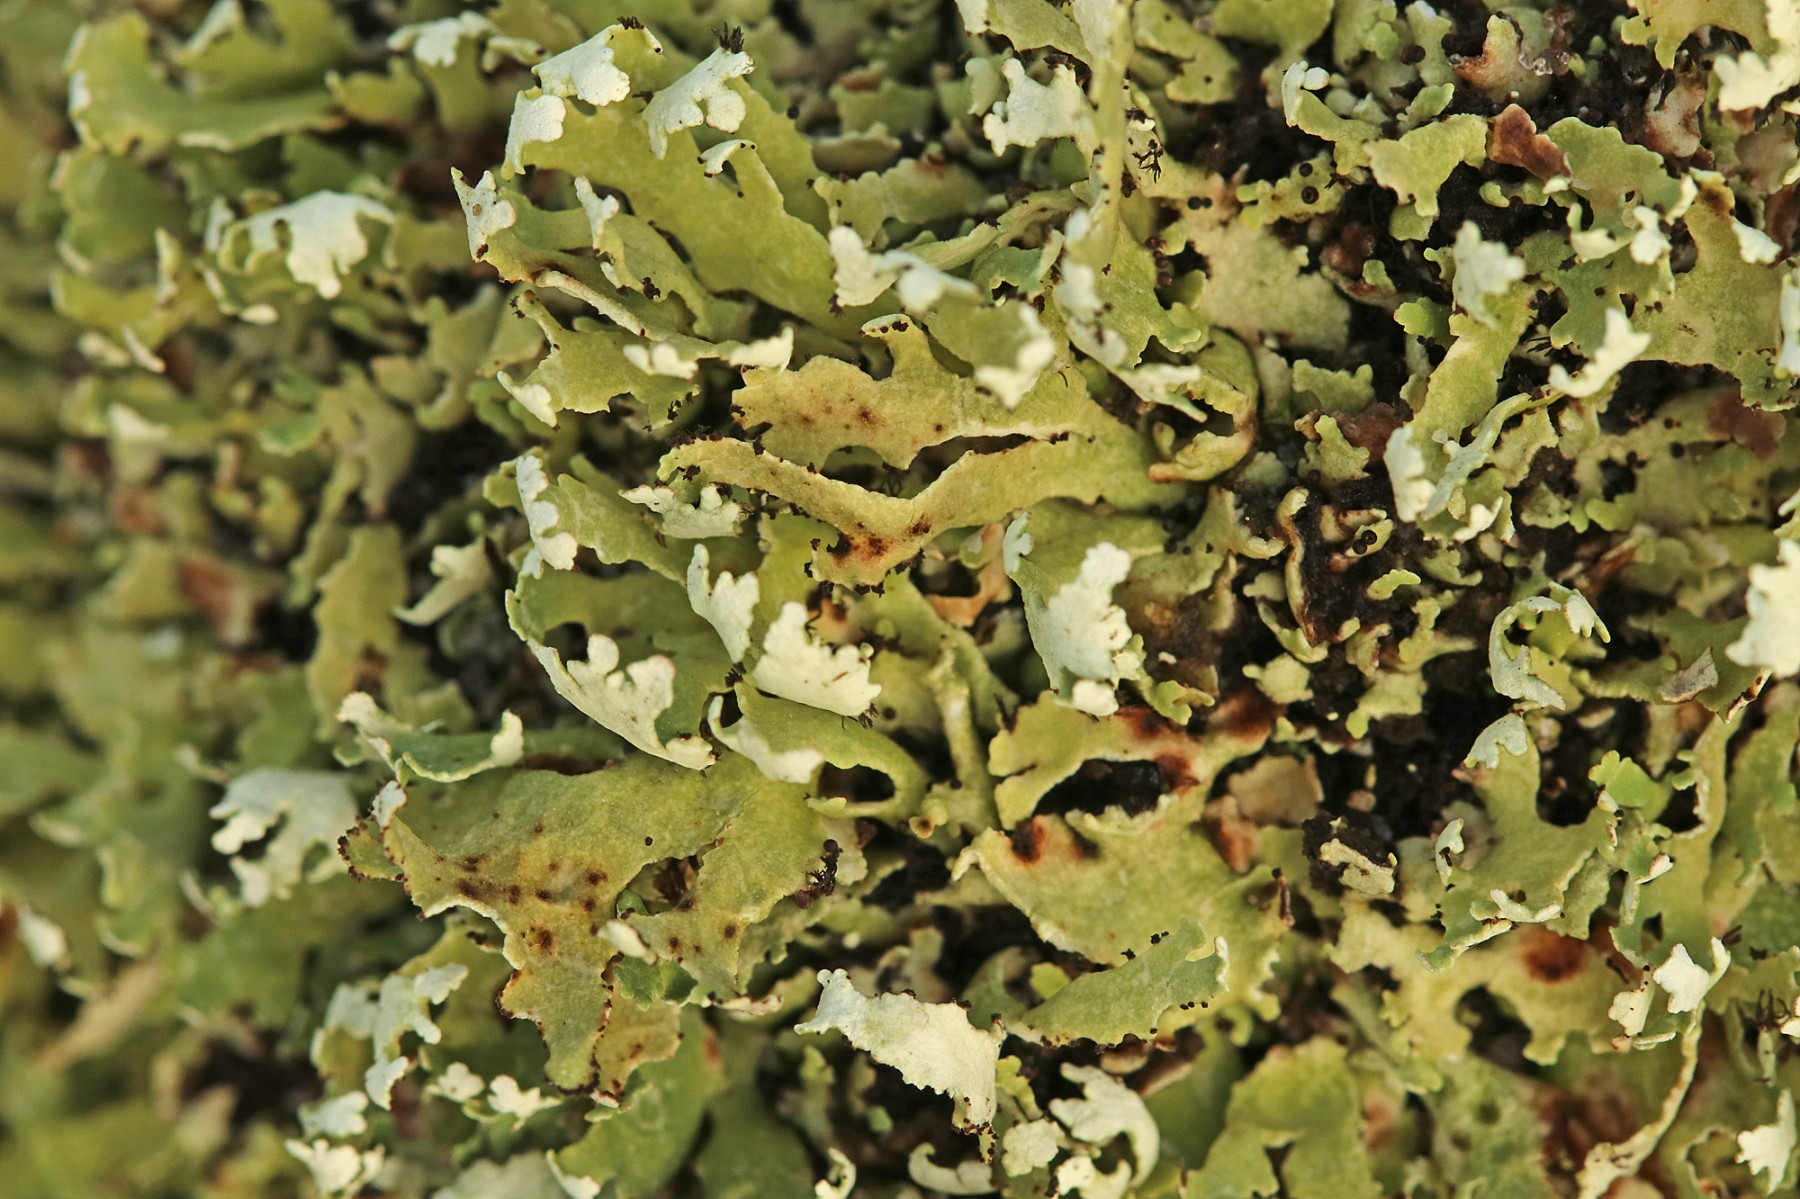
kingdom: Fungi
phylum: Ascomycota
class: Lecanoromycetes
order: Lecanorales
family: Cladoniaceae
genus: Cladonia
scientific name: Cladonia foliacea
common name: fliget bægerlav
